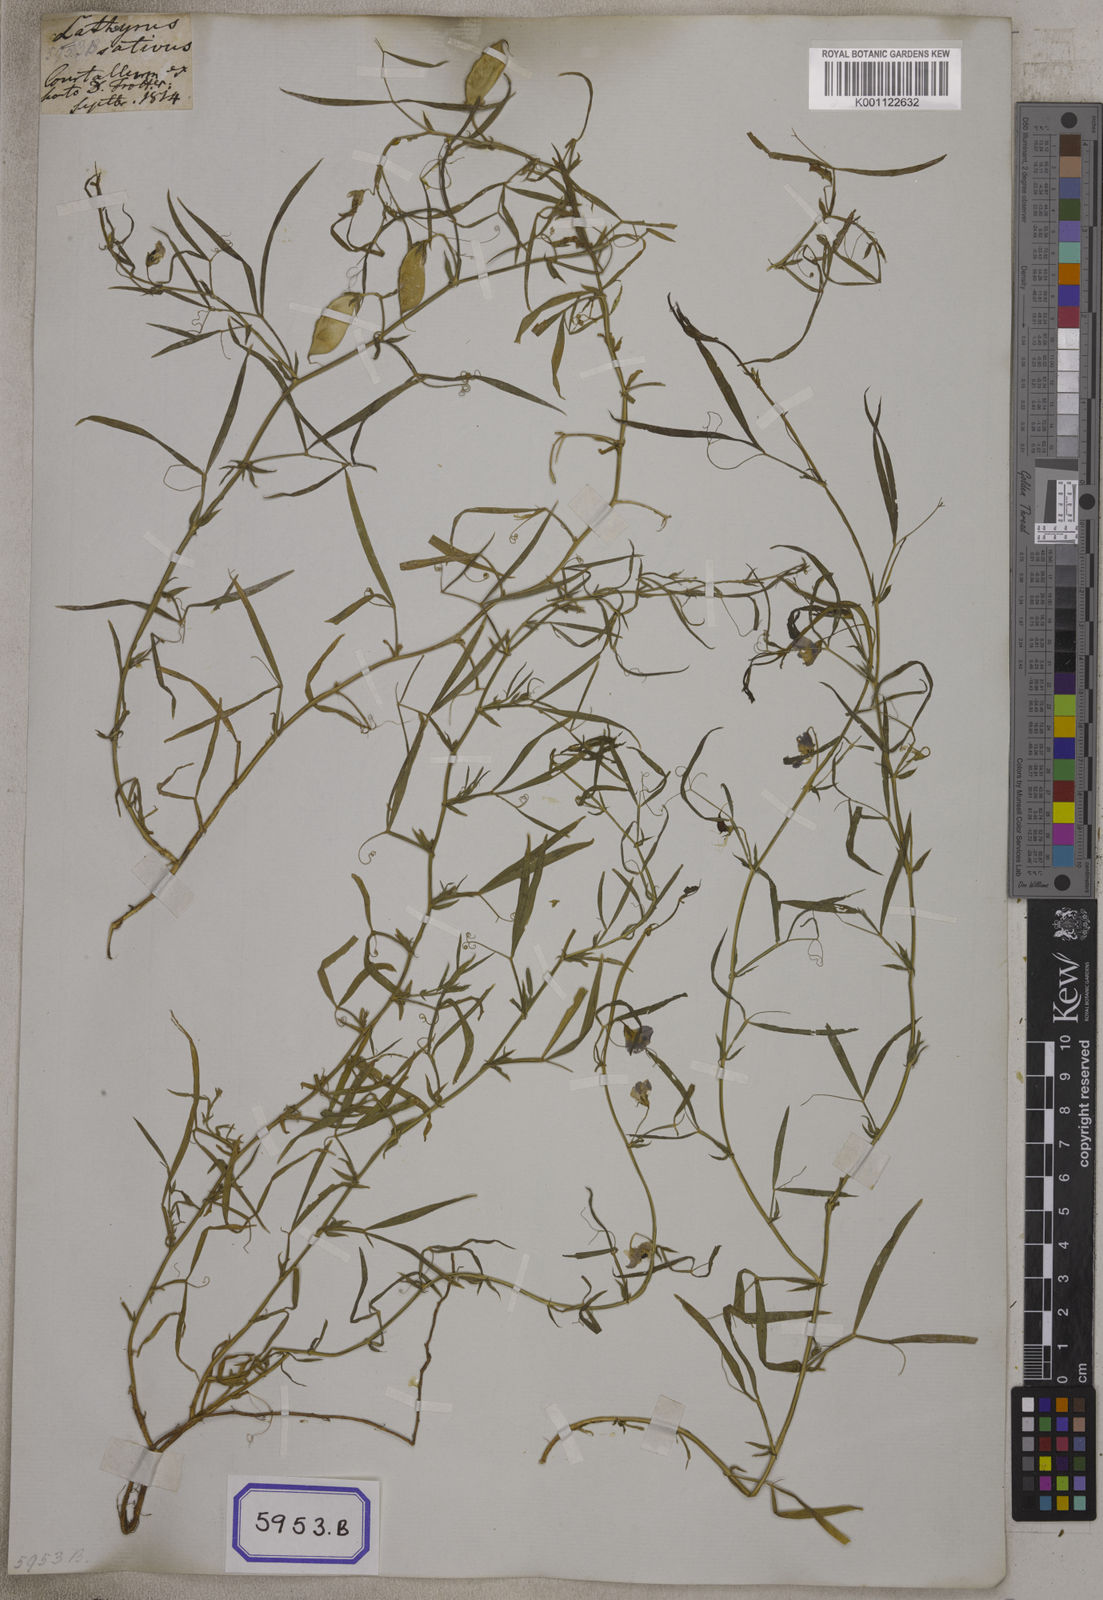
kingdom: Plantae
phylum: Tracheophyta
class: Magnoliopsida
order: Fabales
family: Fabaceae
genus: Lathyrus
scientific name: Lathyrus sativus
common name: Indian pea
